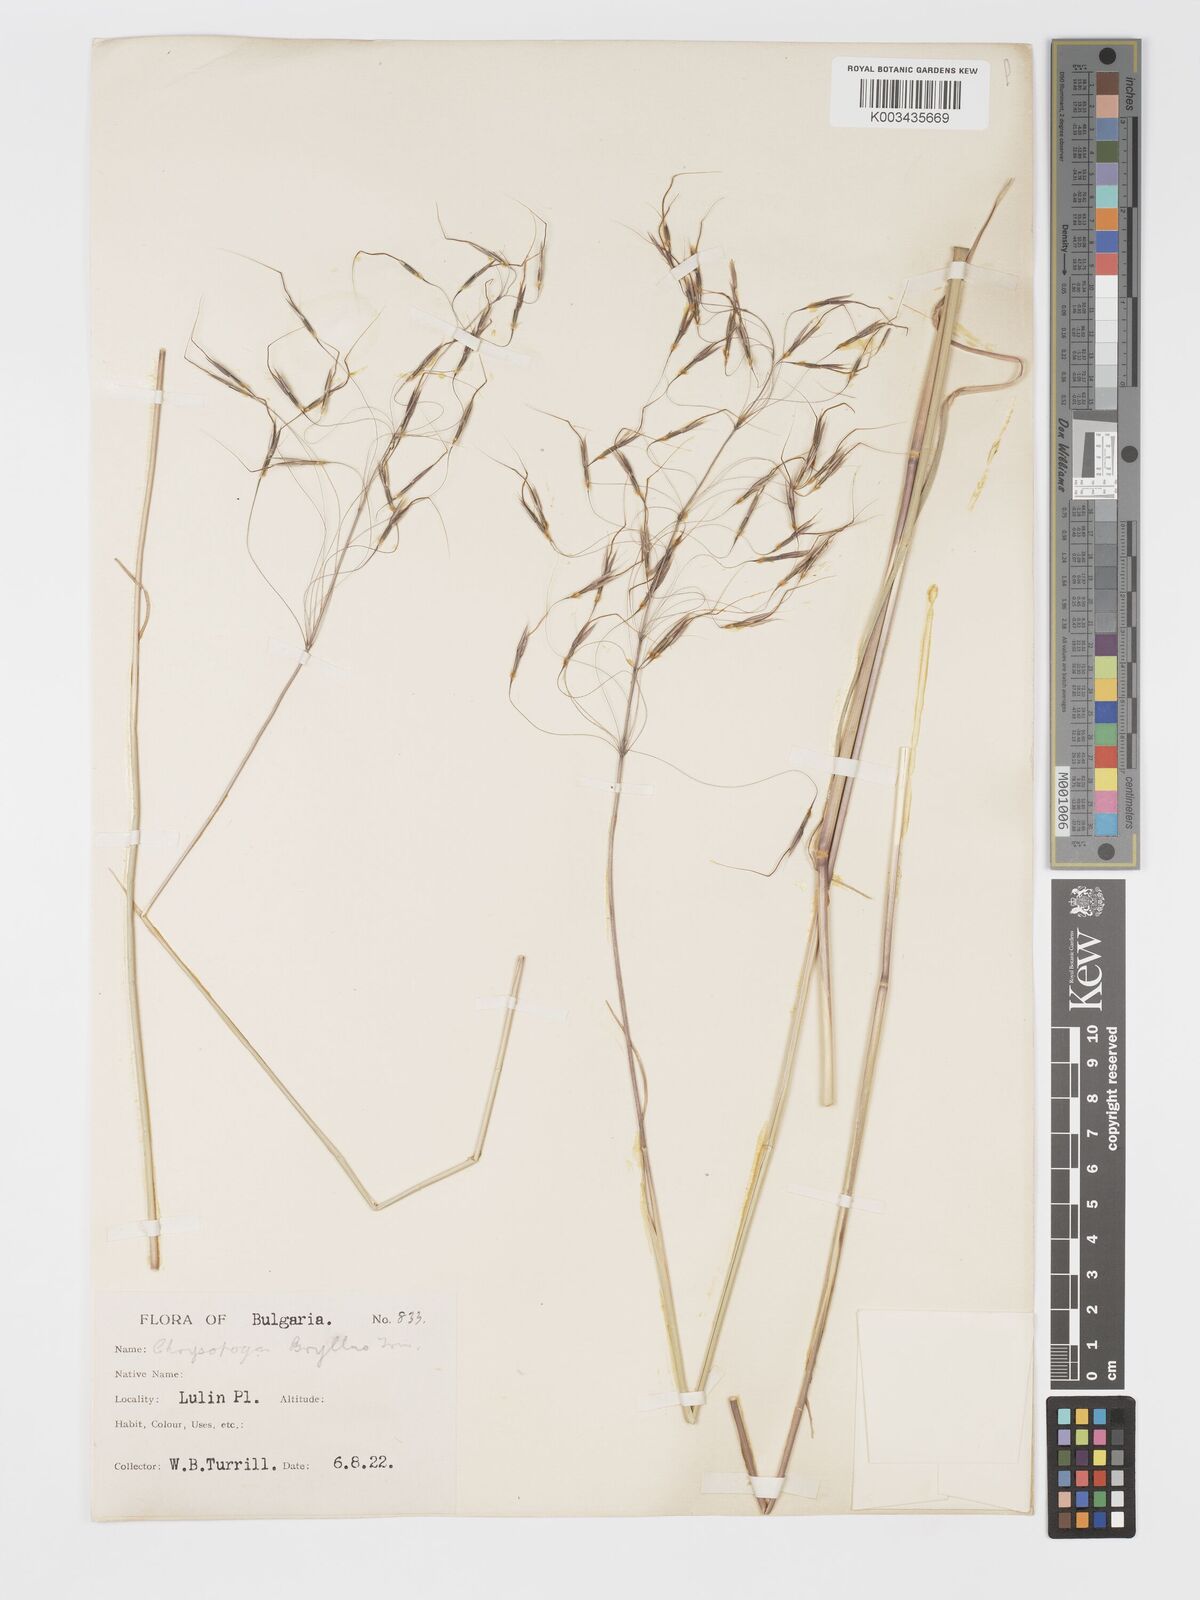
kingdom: Plantae
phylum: Tracheophyta
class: Liliopsida
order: Poales
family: Poaceae
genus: Chrysopogon
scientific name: Chrysopogon gryllus
